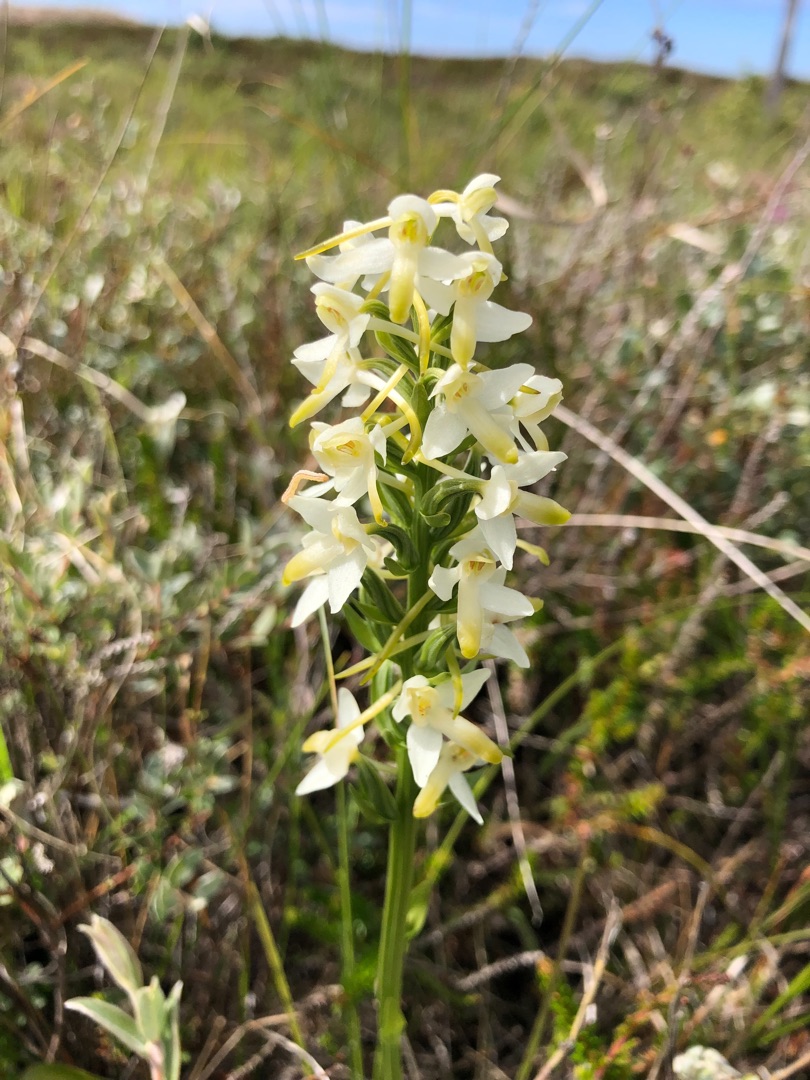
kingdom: Plantae
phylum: Tracheophyta
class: Liliopsida
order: Asparagales
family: Orchidaceae
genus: Platanthera
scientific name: Platanthera bifolia
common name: Bakke-gøgelilje
